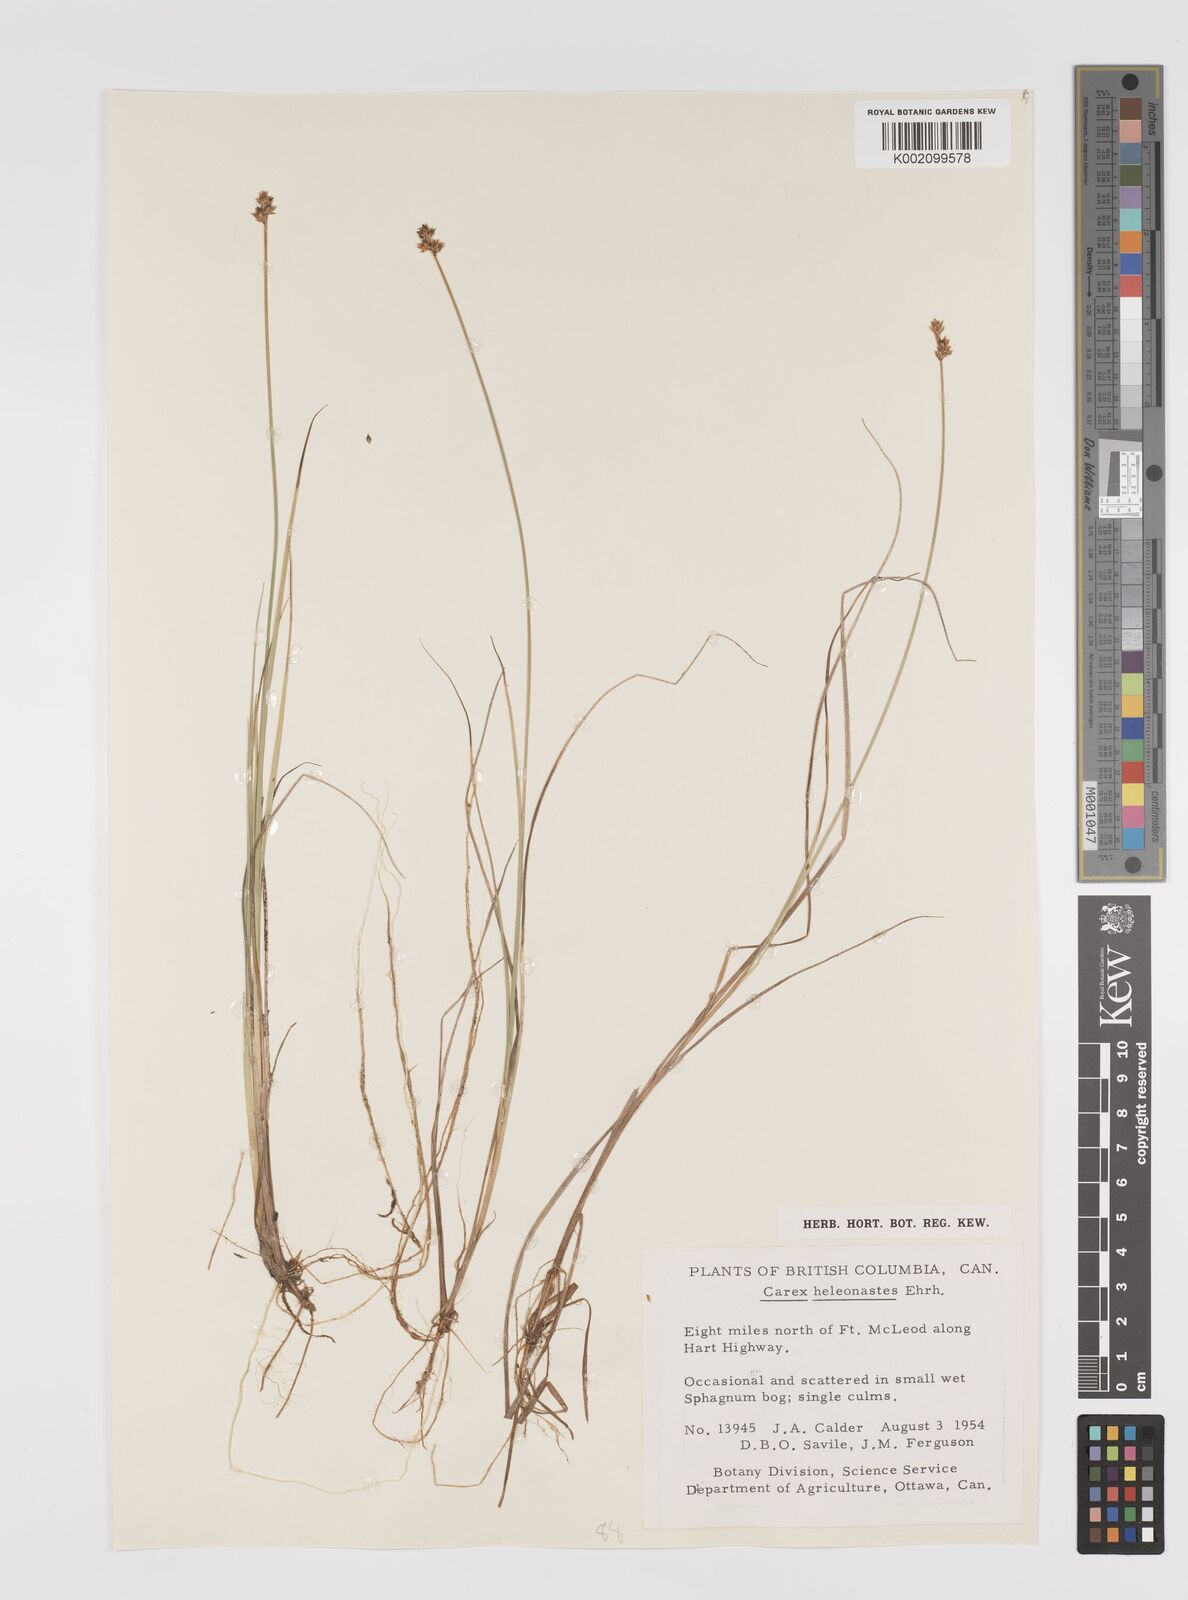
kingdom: Plantae
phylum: Tracheophyta
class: Liliopsida
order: Poales
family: Cyperaceae
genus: Carex
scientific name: Carex heleonastes
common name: Hudson bay sedge
